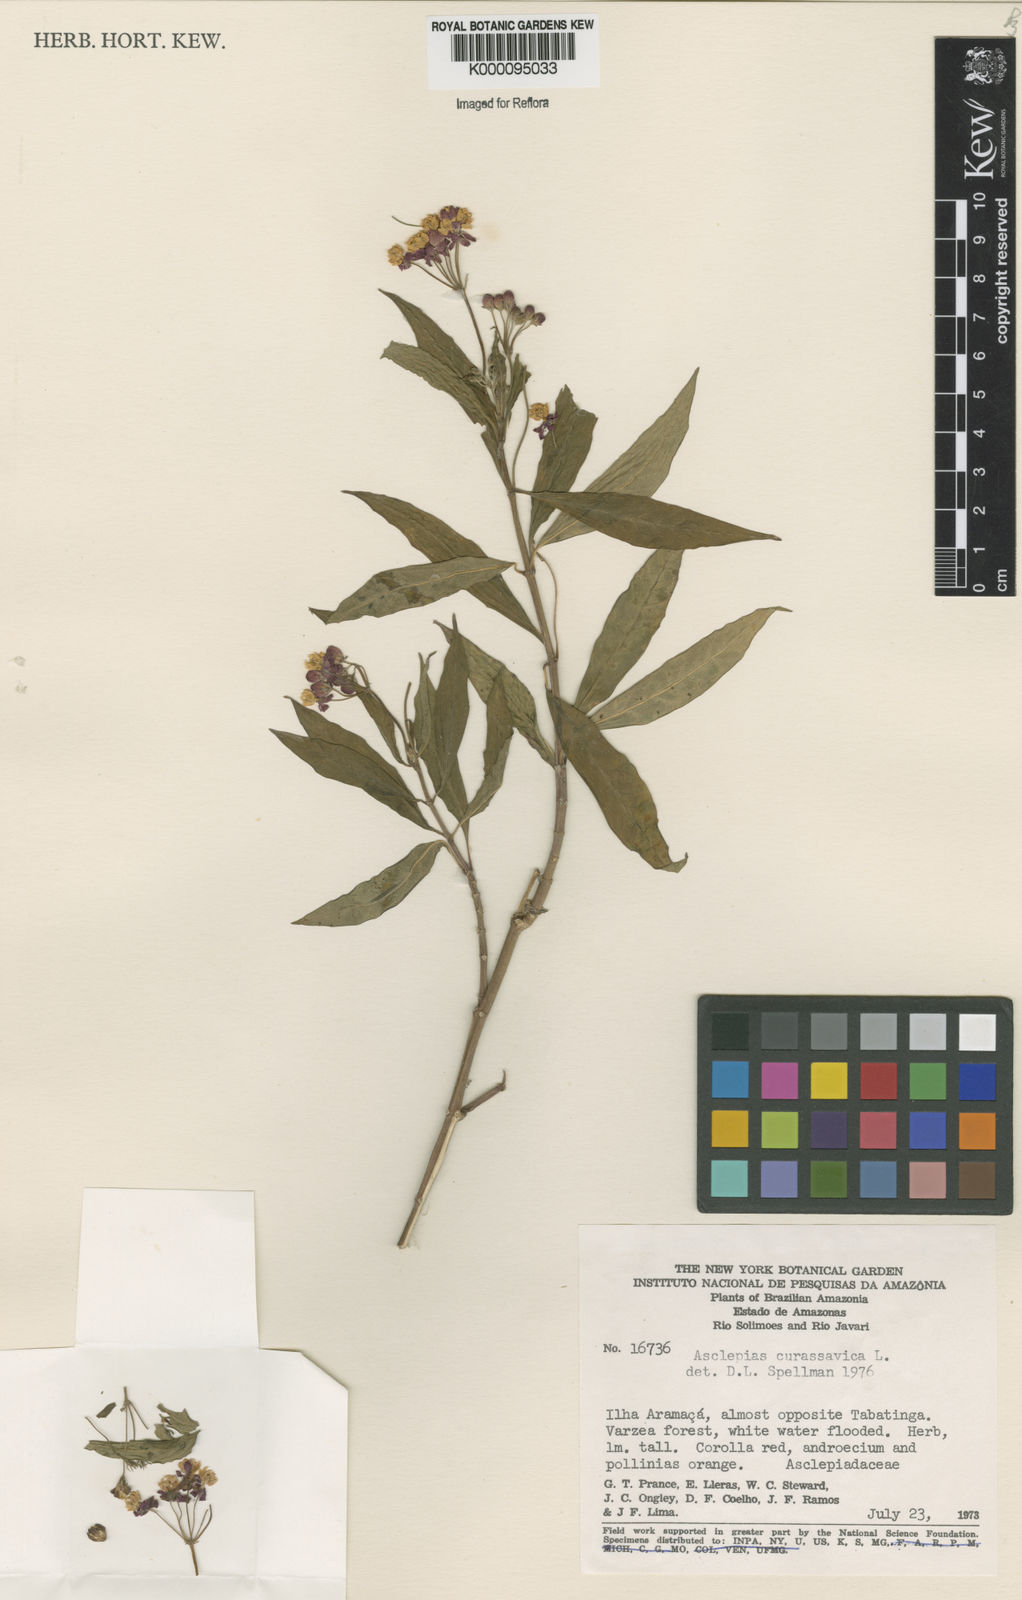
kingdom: Plantae
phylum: Tracheophyta
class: Magnoliopsida
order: Gentianales
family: Apocynaceae
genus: Asclepias
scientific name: Asclepias curassavica
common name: Bloodflower
